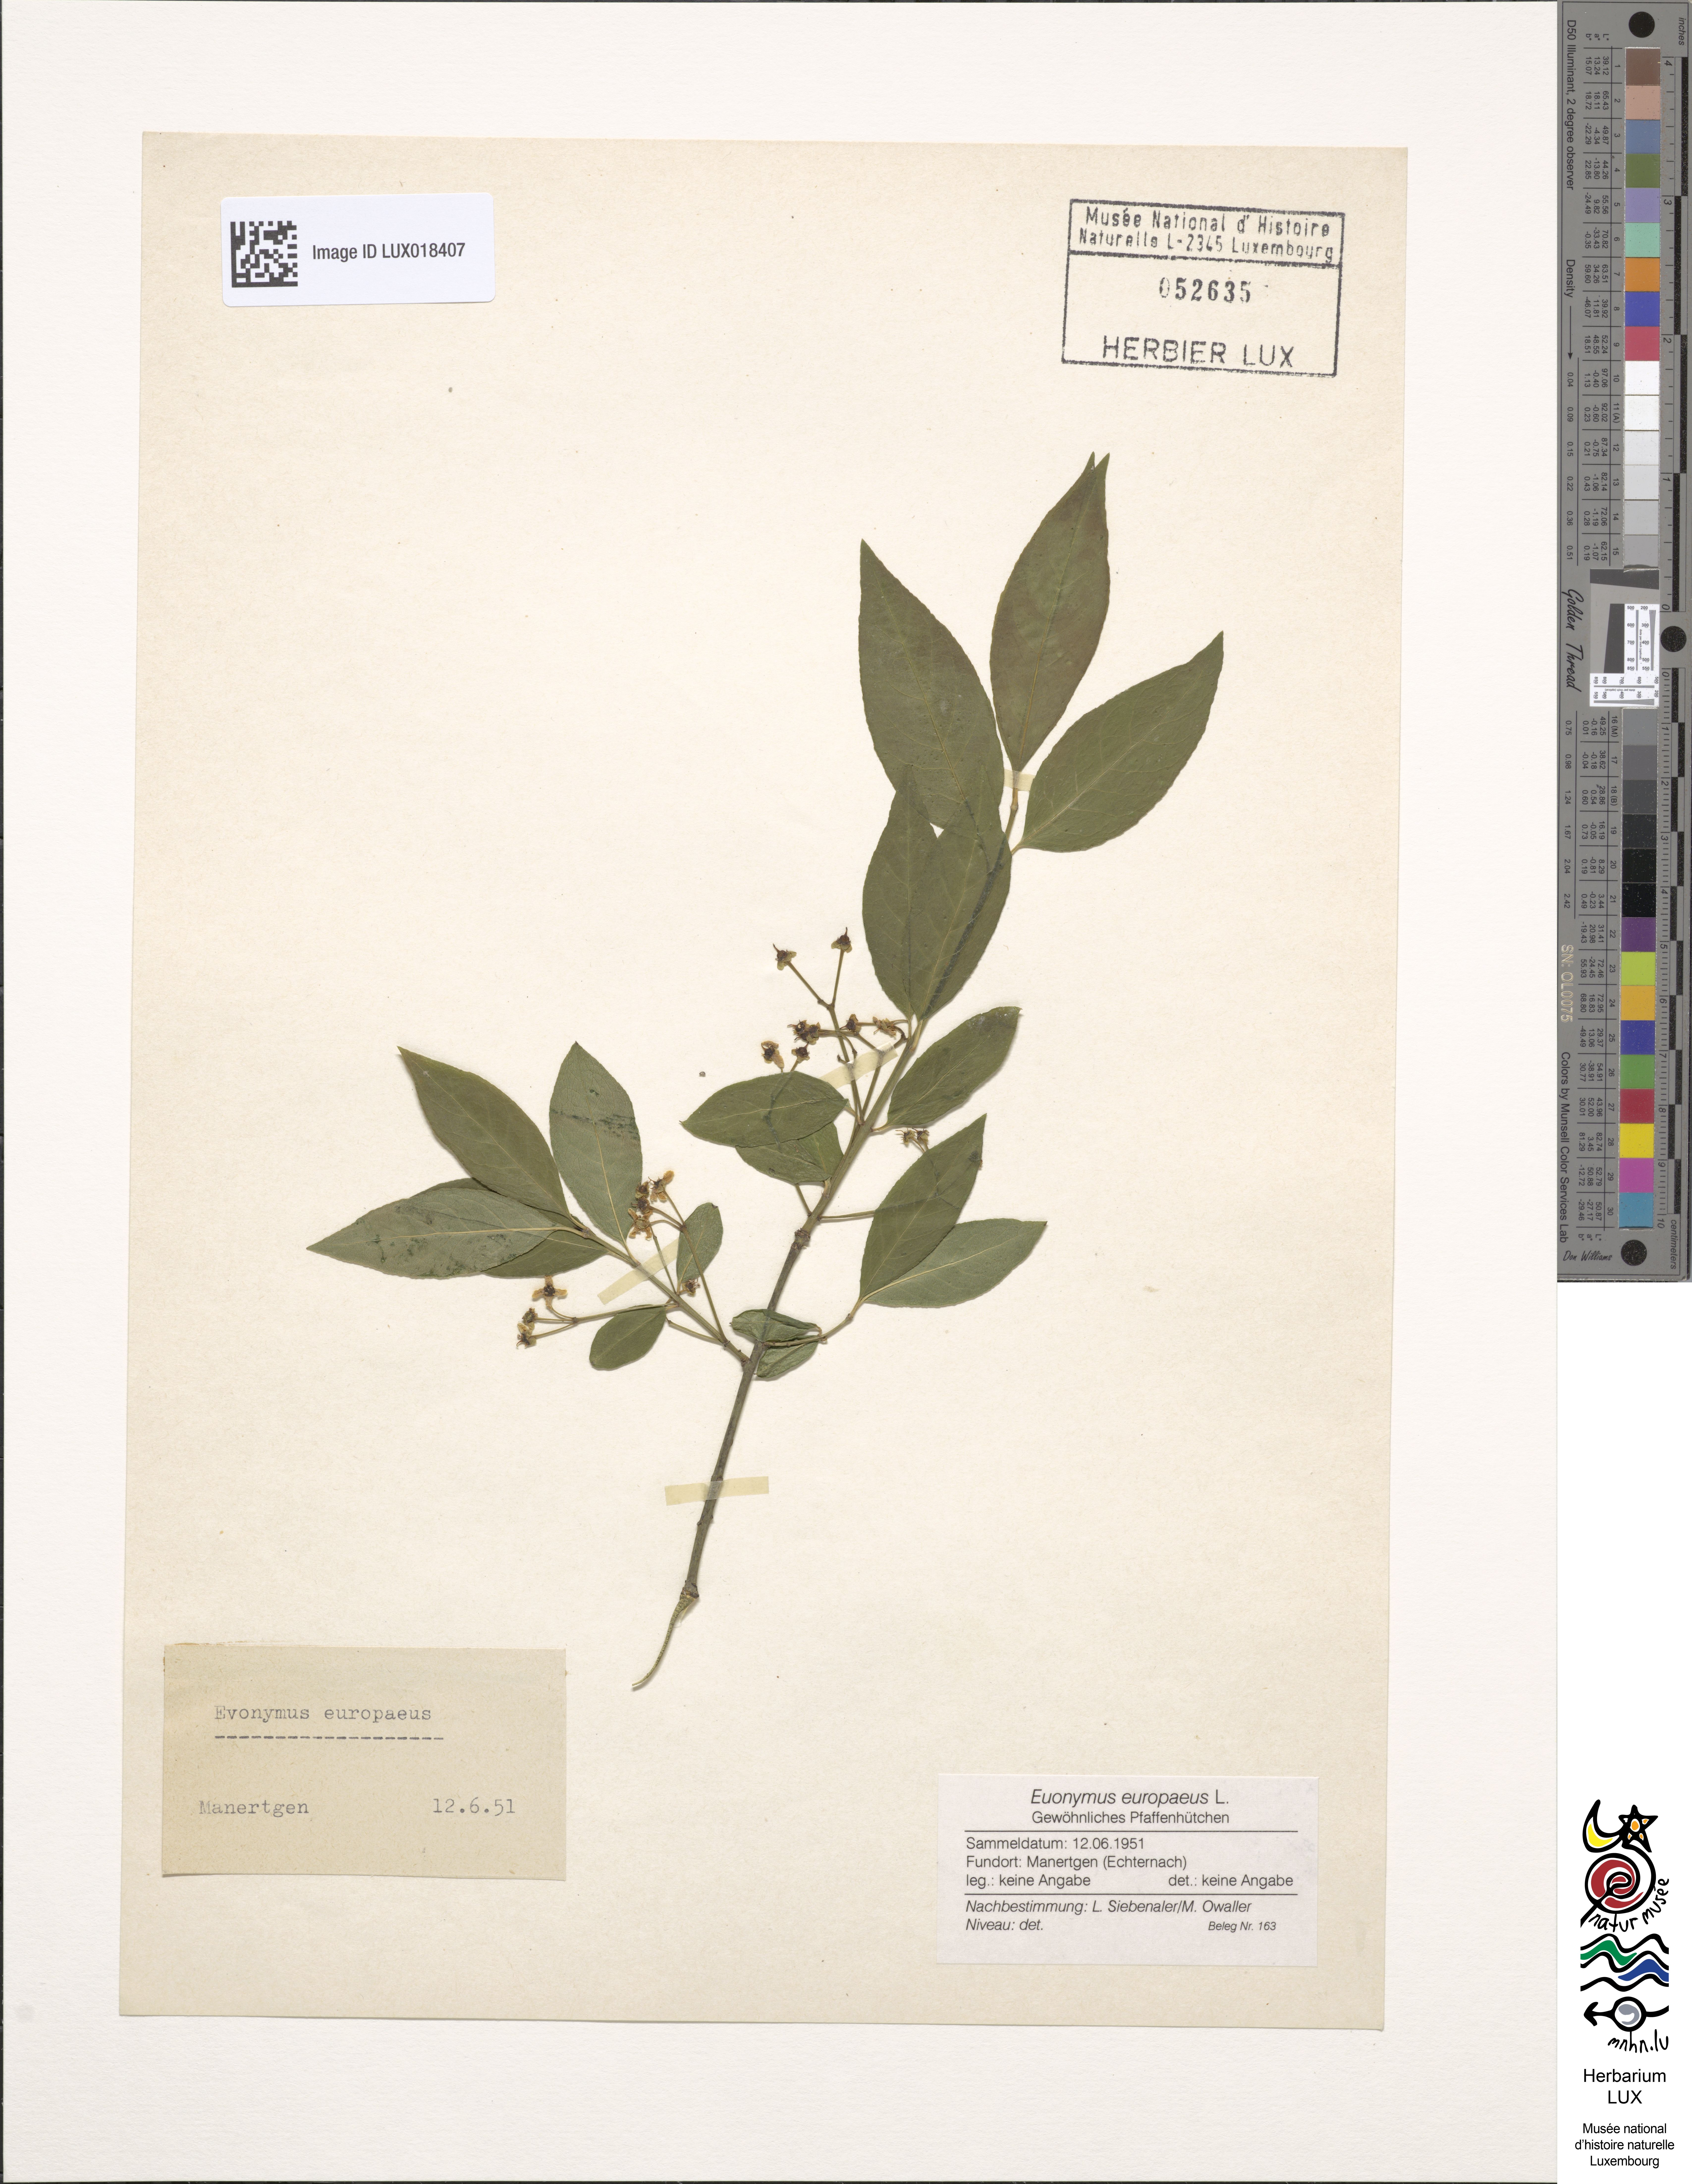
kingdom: Plantae
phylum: Tracheophyta
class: Magnoliopsida
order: Celastrales
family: Celastraceae
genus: Euonymus
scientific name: Euonymus europaeus
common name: Spindle
